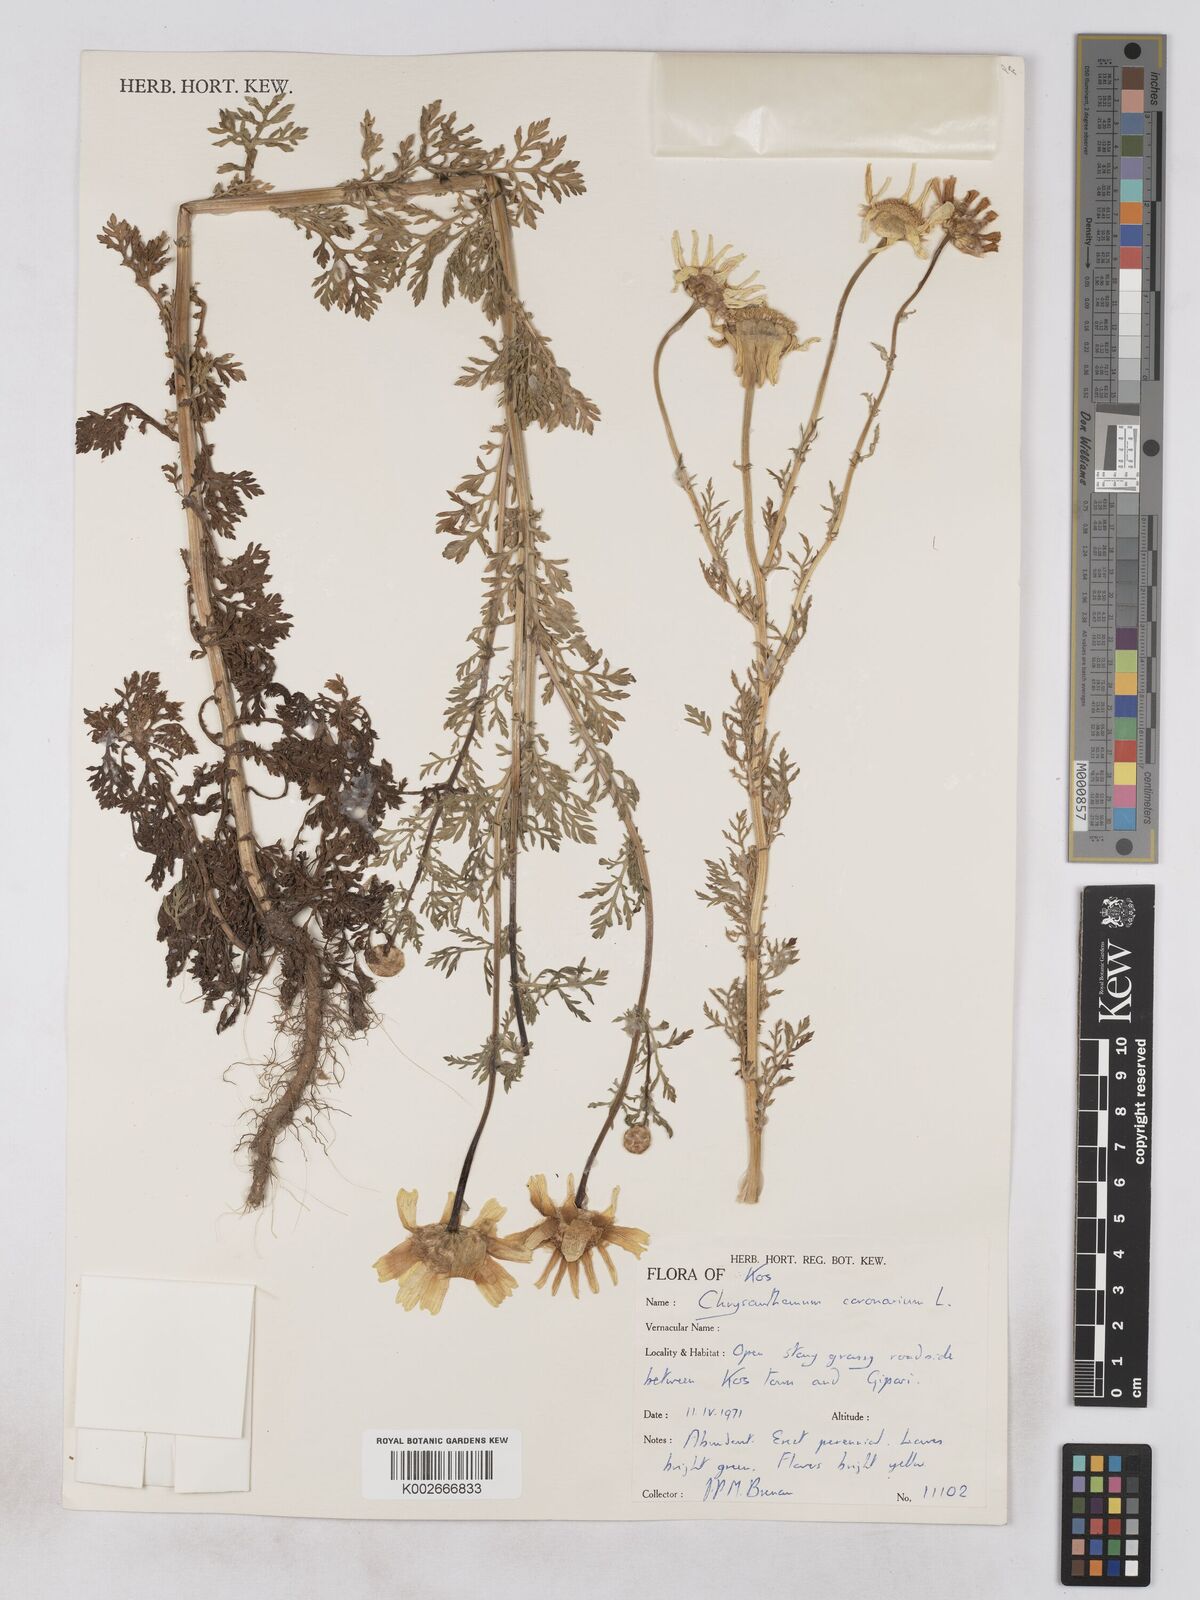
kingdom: Plantae
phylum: Tracheophyta
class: Magnoliopsida
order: Asterales
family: Asteraceae
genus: Glebionis
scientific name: Glebionis coronaria
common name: Crowndaisy
